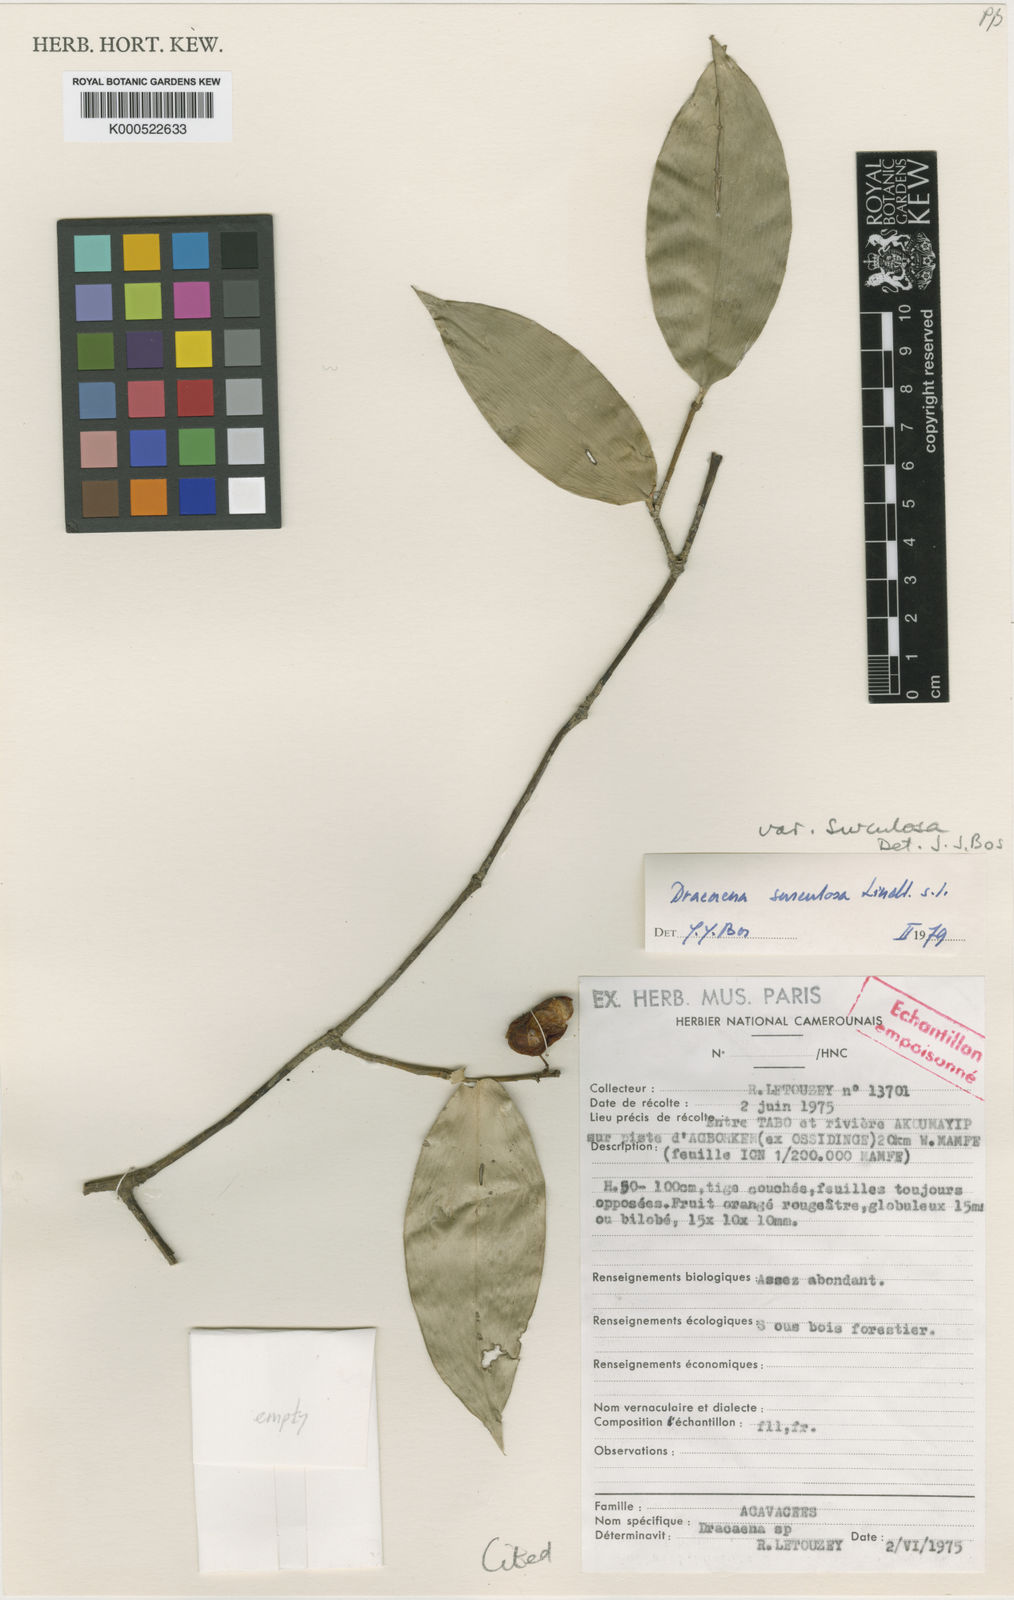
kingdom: Plantae
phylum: Tracheophyta
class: Liliopsida
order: Asparagales
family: Asparagaceae
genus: Dracaena
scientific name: Dracaena surculosa
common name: Spotted dracaena
